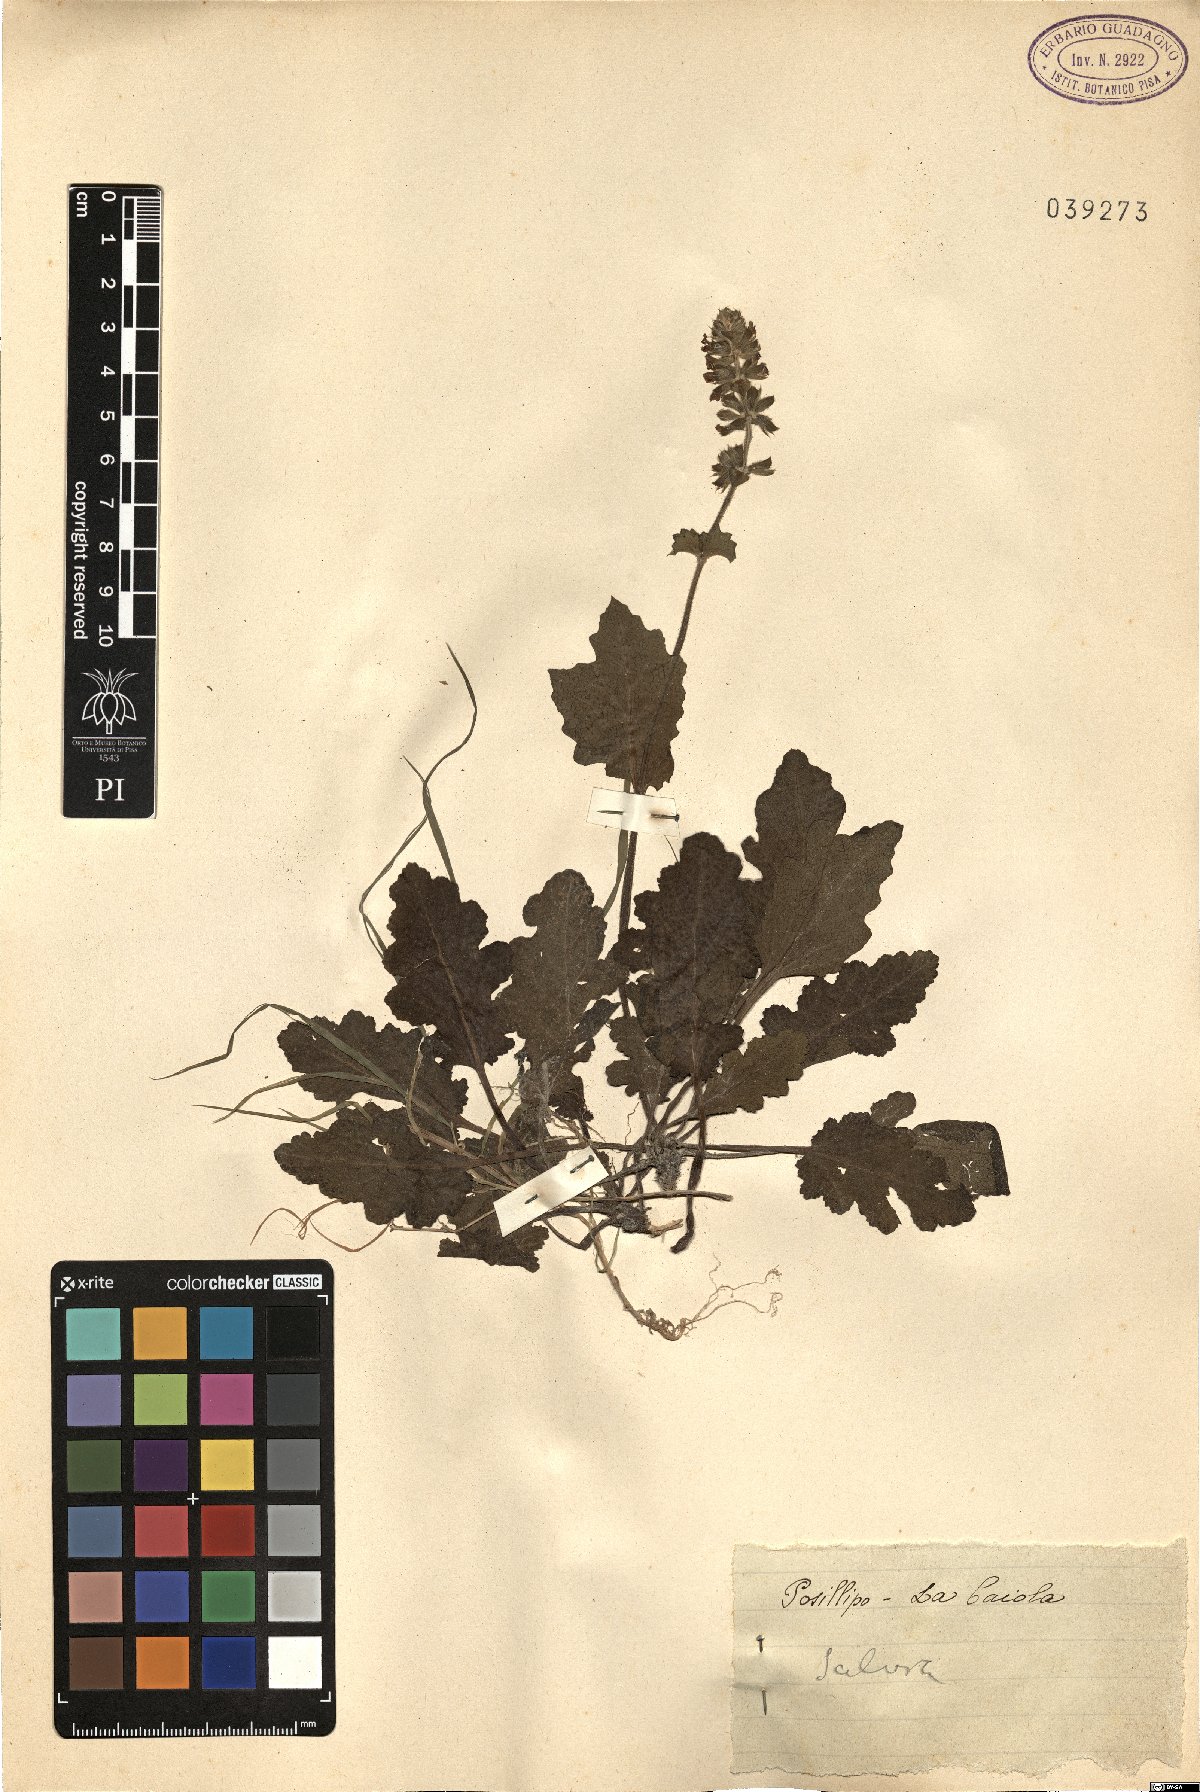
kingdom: Plantae
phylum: Tracheophyta
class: Magnoliopsida
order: Lamiales
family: Lamiaceae
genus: Salvia
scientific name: Salvia
